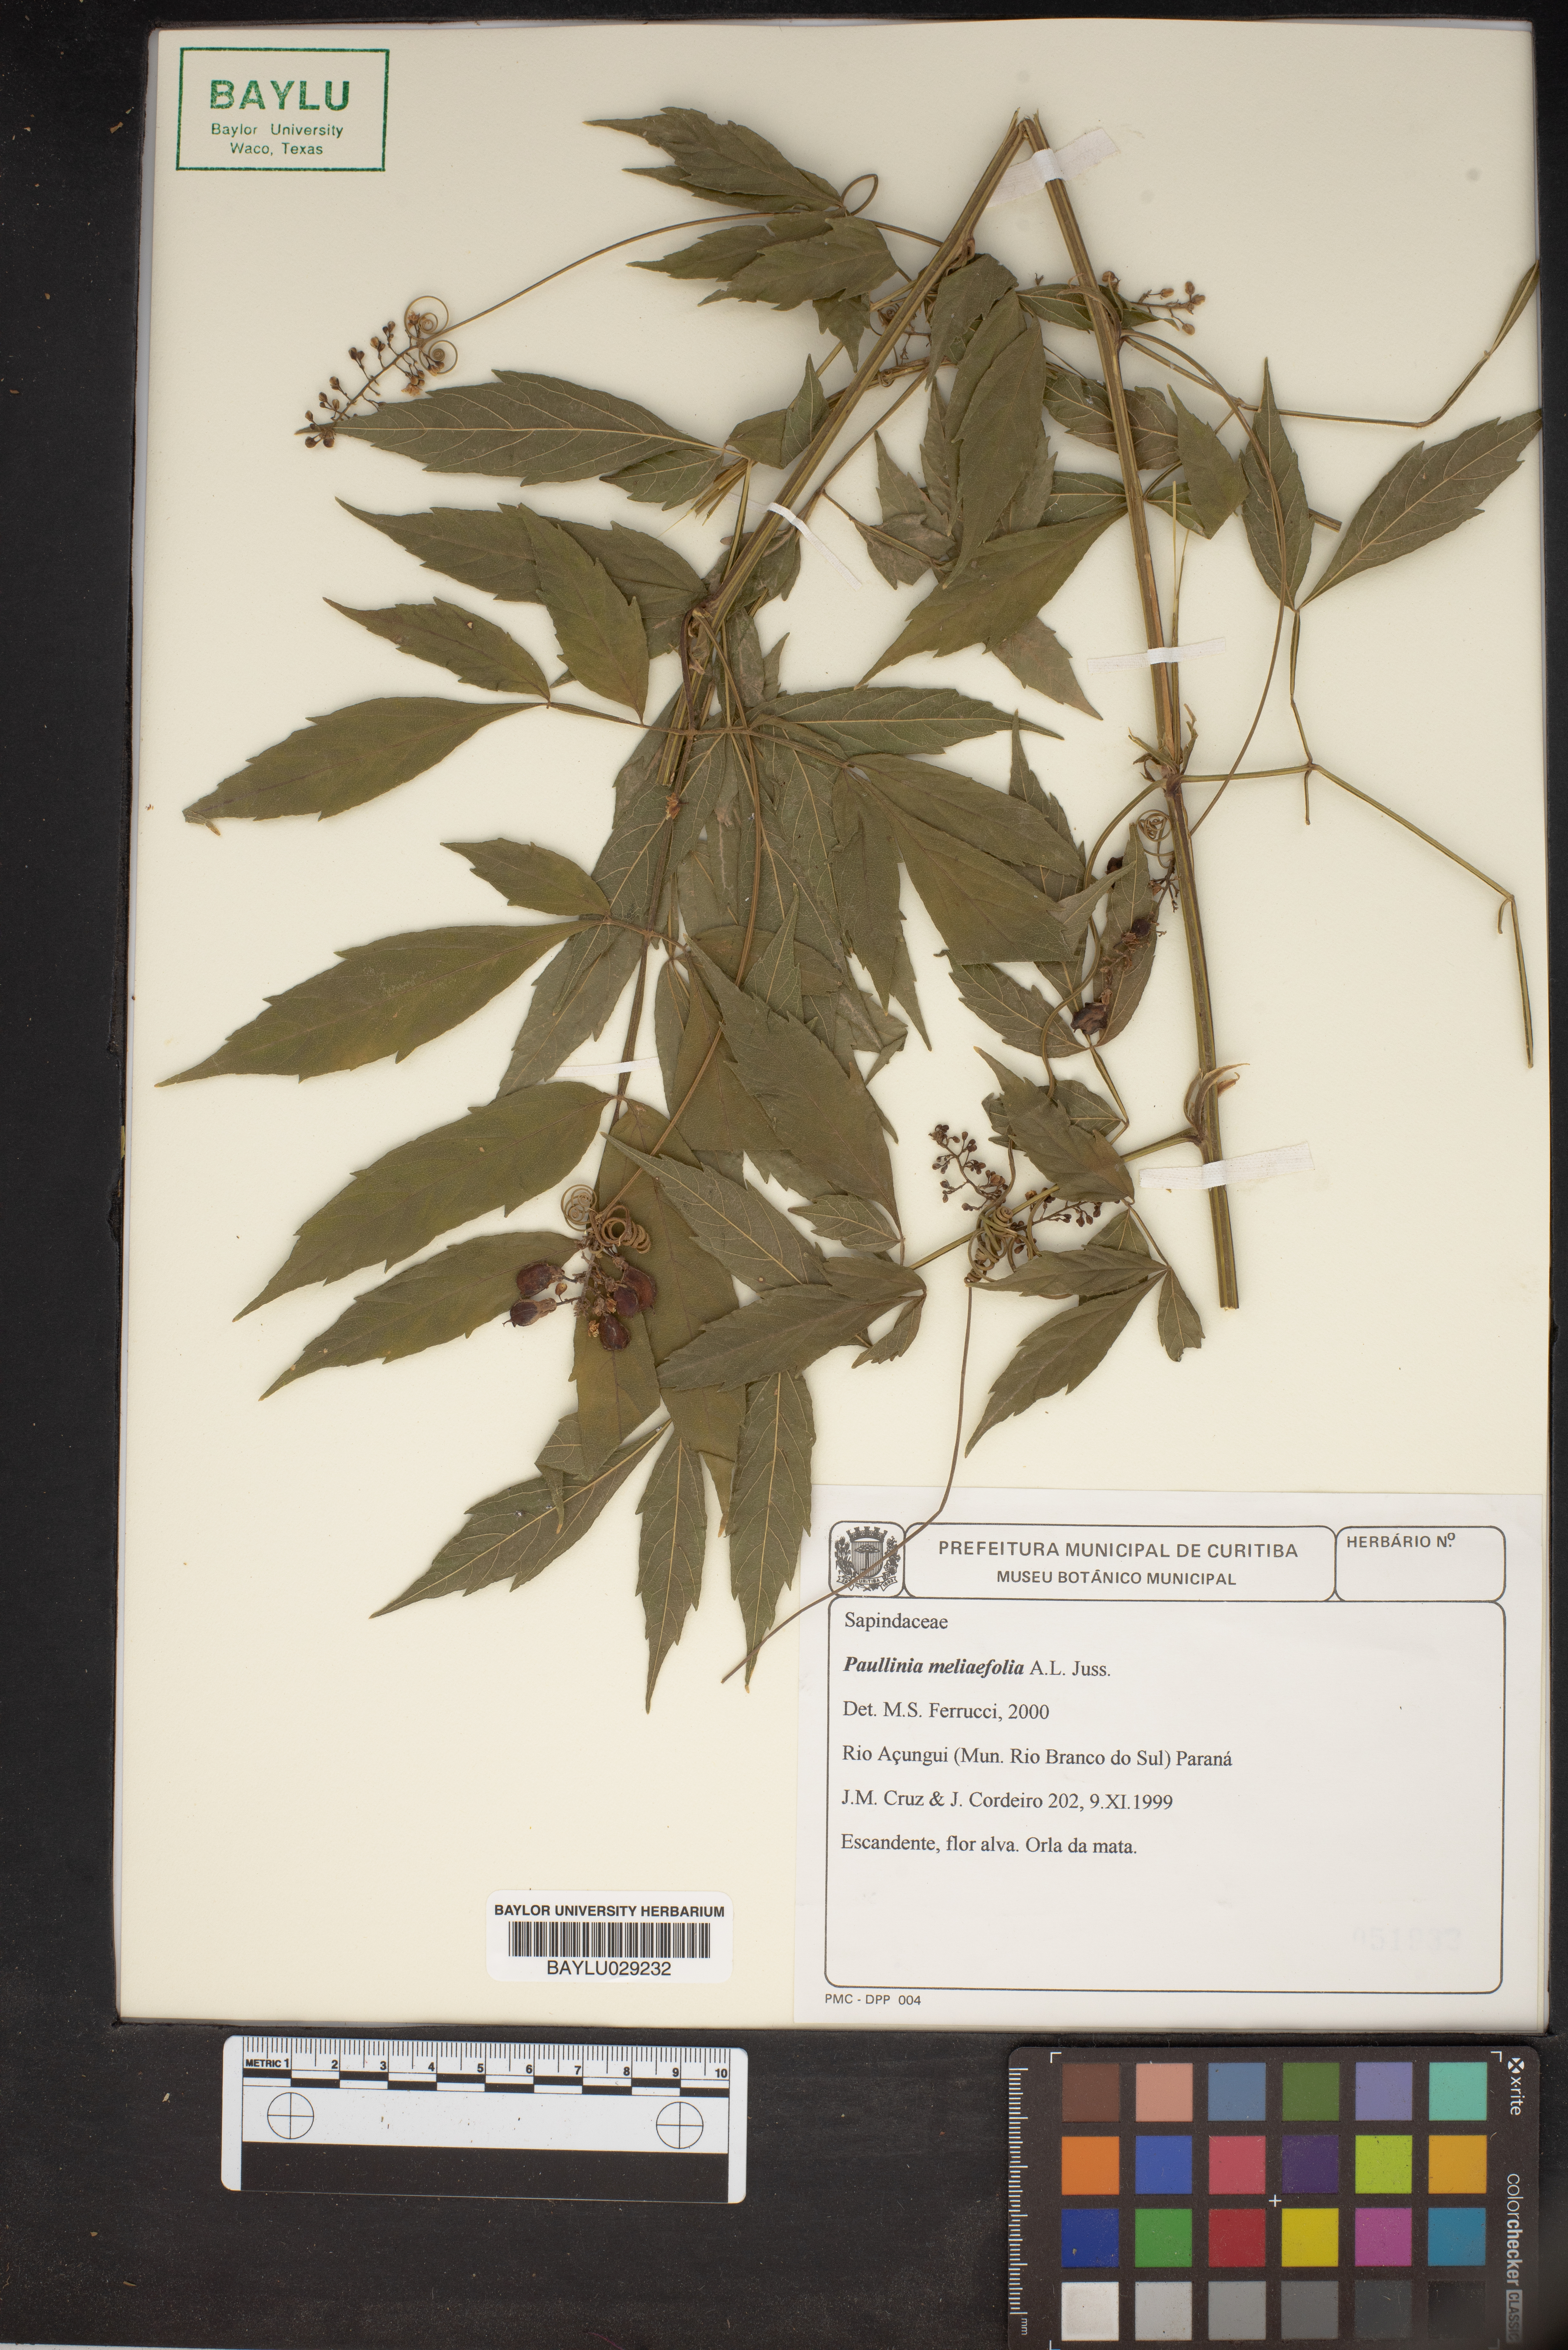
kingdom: Plantae
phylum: Tracheophyta
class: Magnoliopsida
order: Sapindales
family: Sapindaceae
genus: Paullinia
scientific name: Paullinia meliifolia
